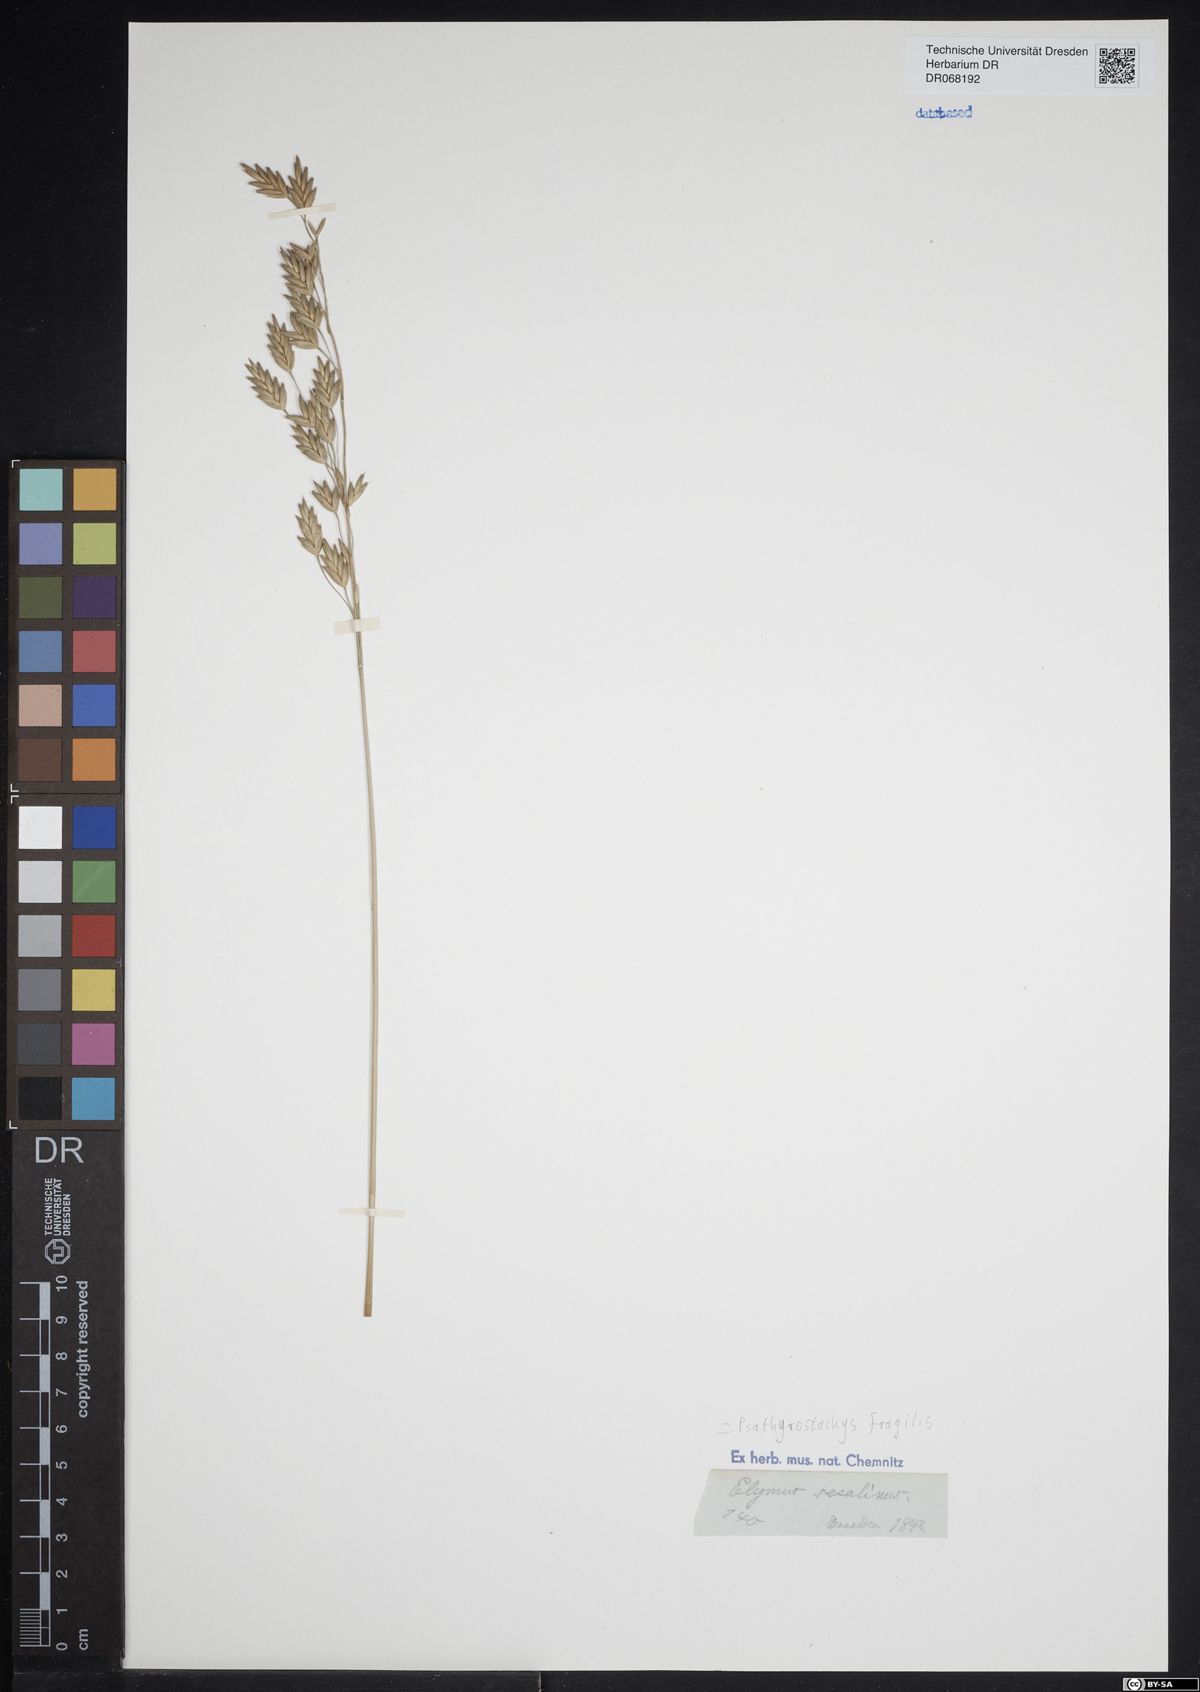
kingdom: Plantae
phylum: Tracheophyta
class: Liliopsida
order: Poales
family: Poaceae
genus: Psathyrostachys
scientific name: Psathyrostachys fragilis
